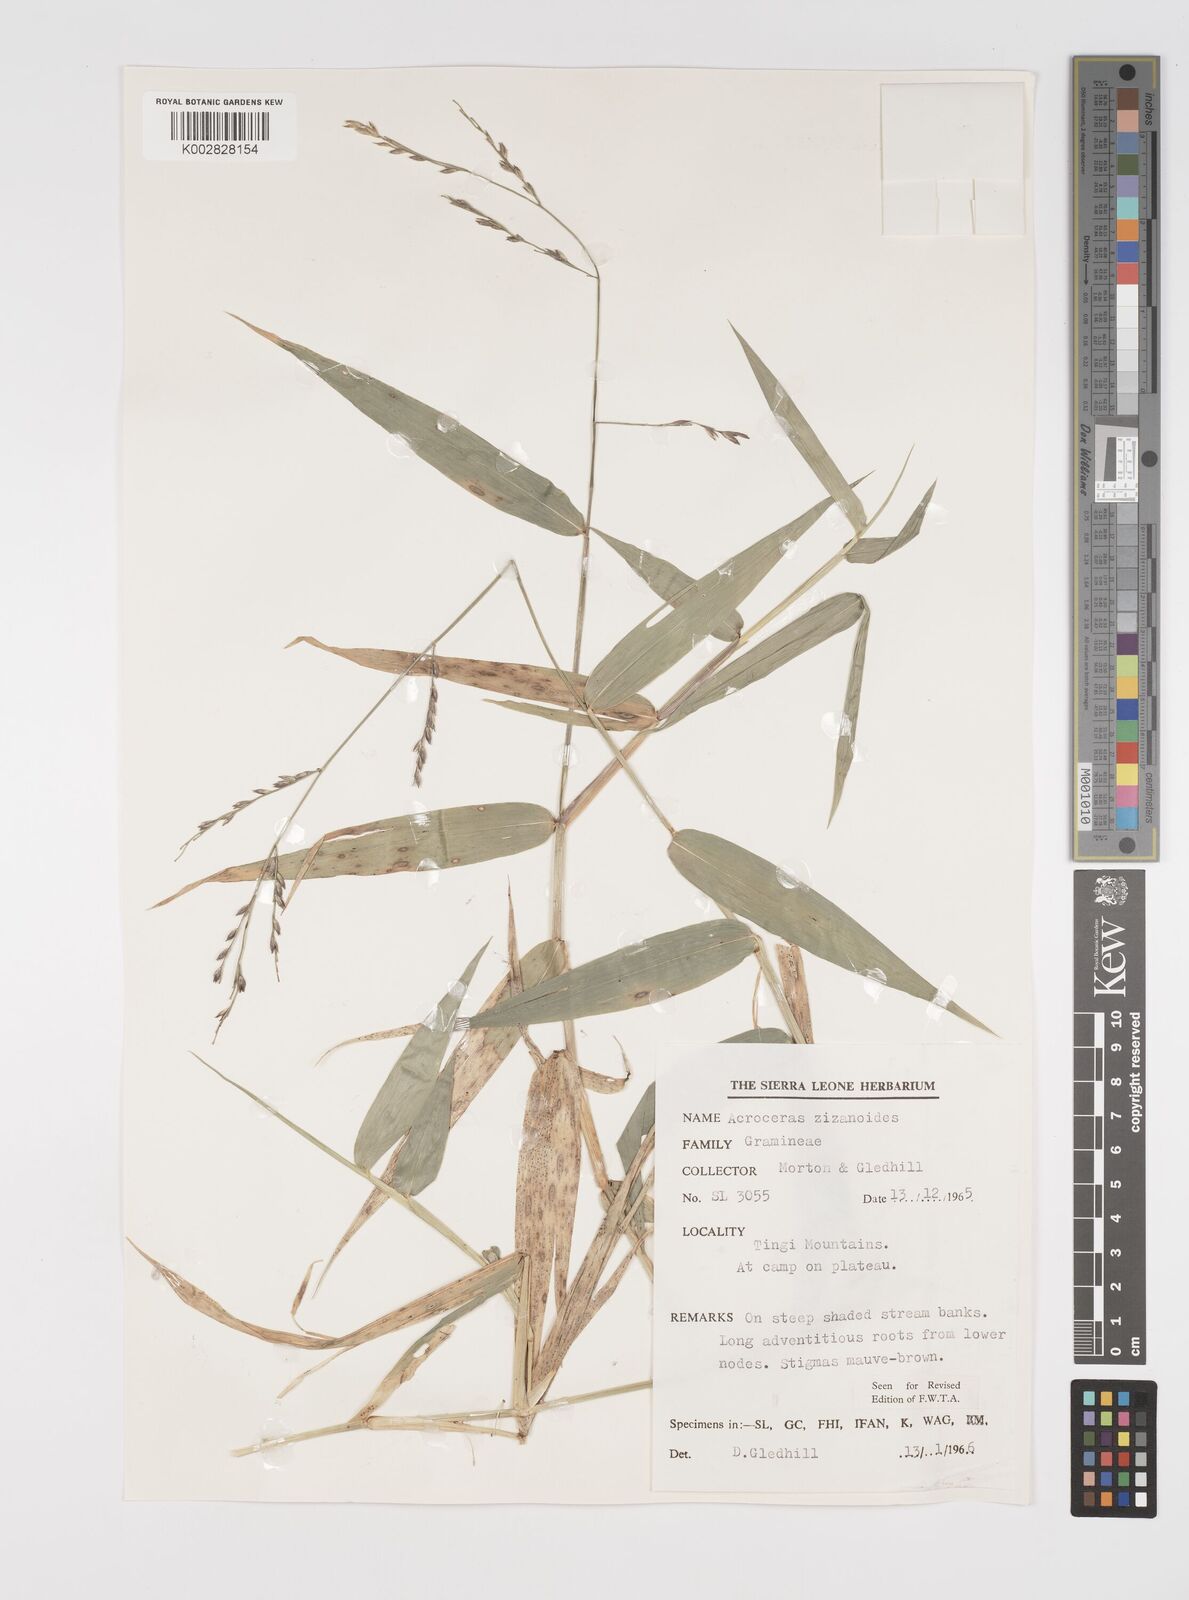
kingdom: Plantae
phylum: Tracheophyta
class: Liliopsida
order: Poales
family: Poaceae
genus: Acroceras
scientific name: Acroceras zizanioides
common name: Oat grass
